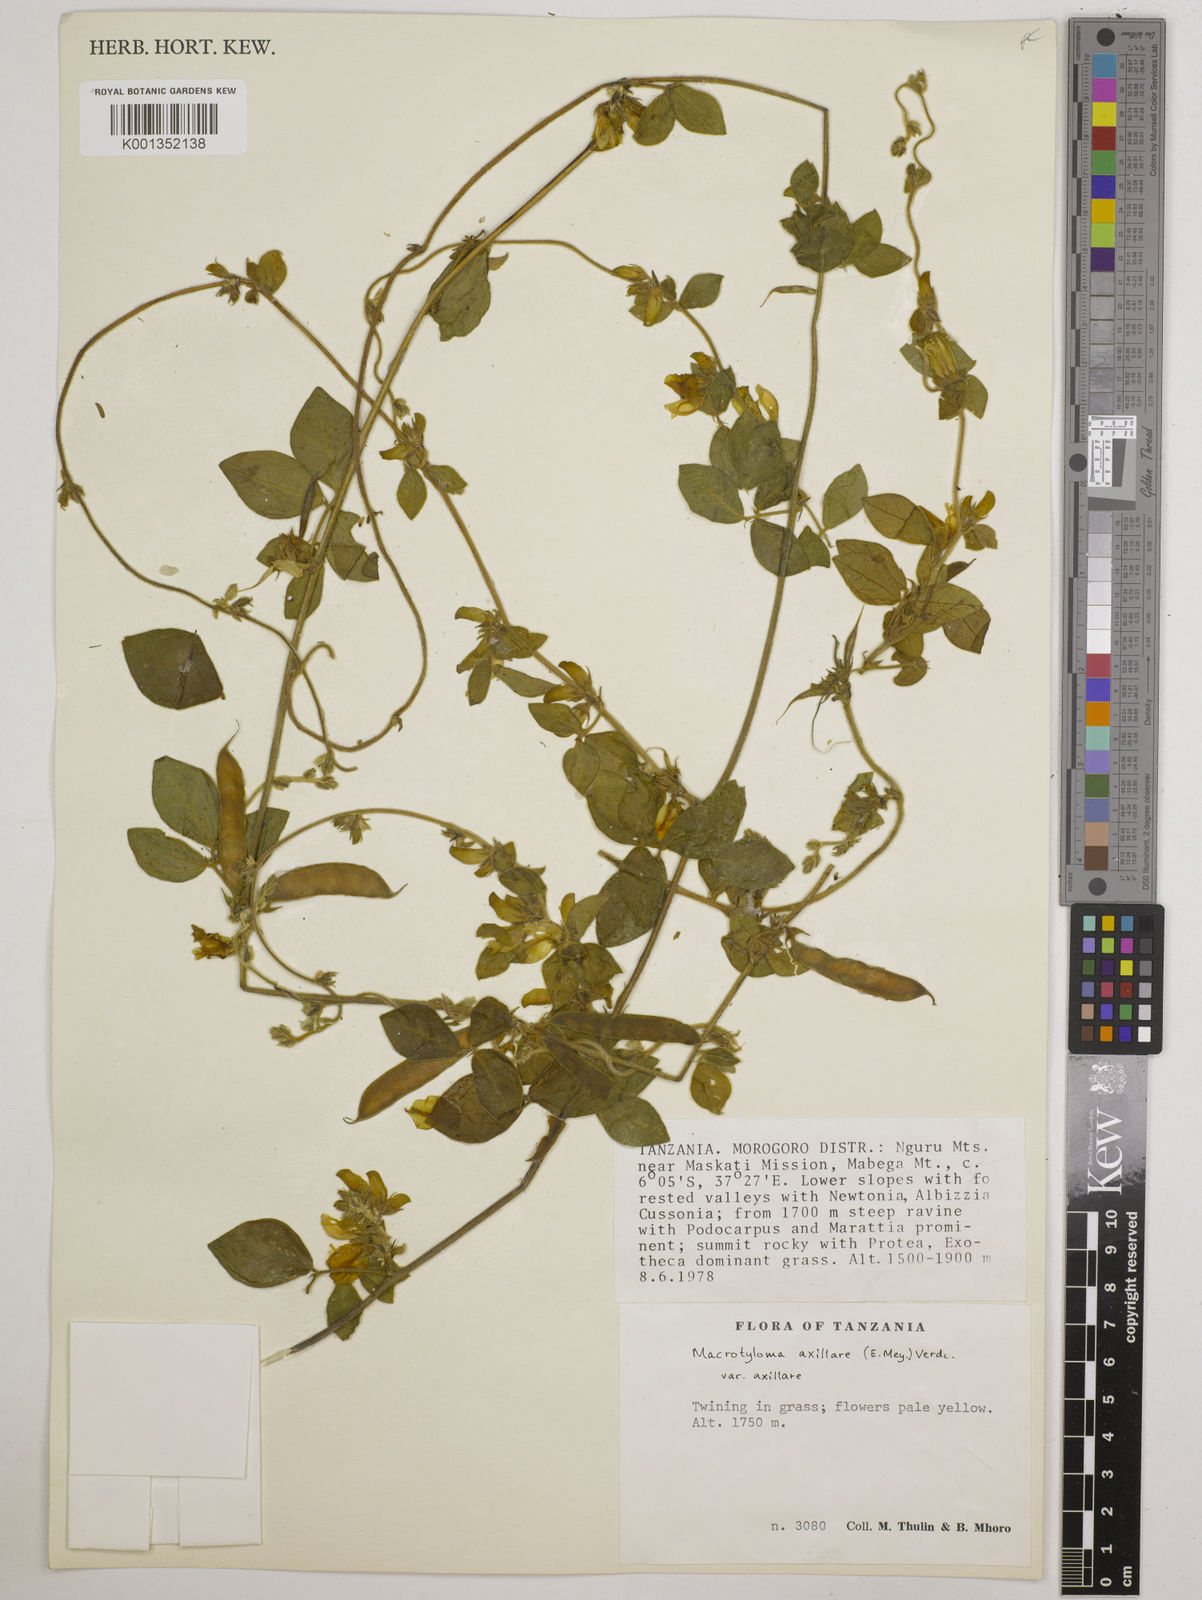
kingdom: Plantae
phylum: Tracheophyta
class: Magnoliopsida
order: Fabales
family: Fabaceae
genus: Macrotyloma
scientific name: Macrotyloma axillare
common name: Perennial horsegram
